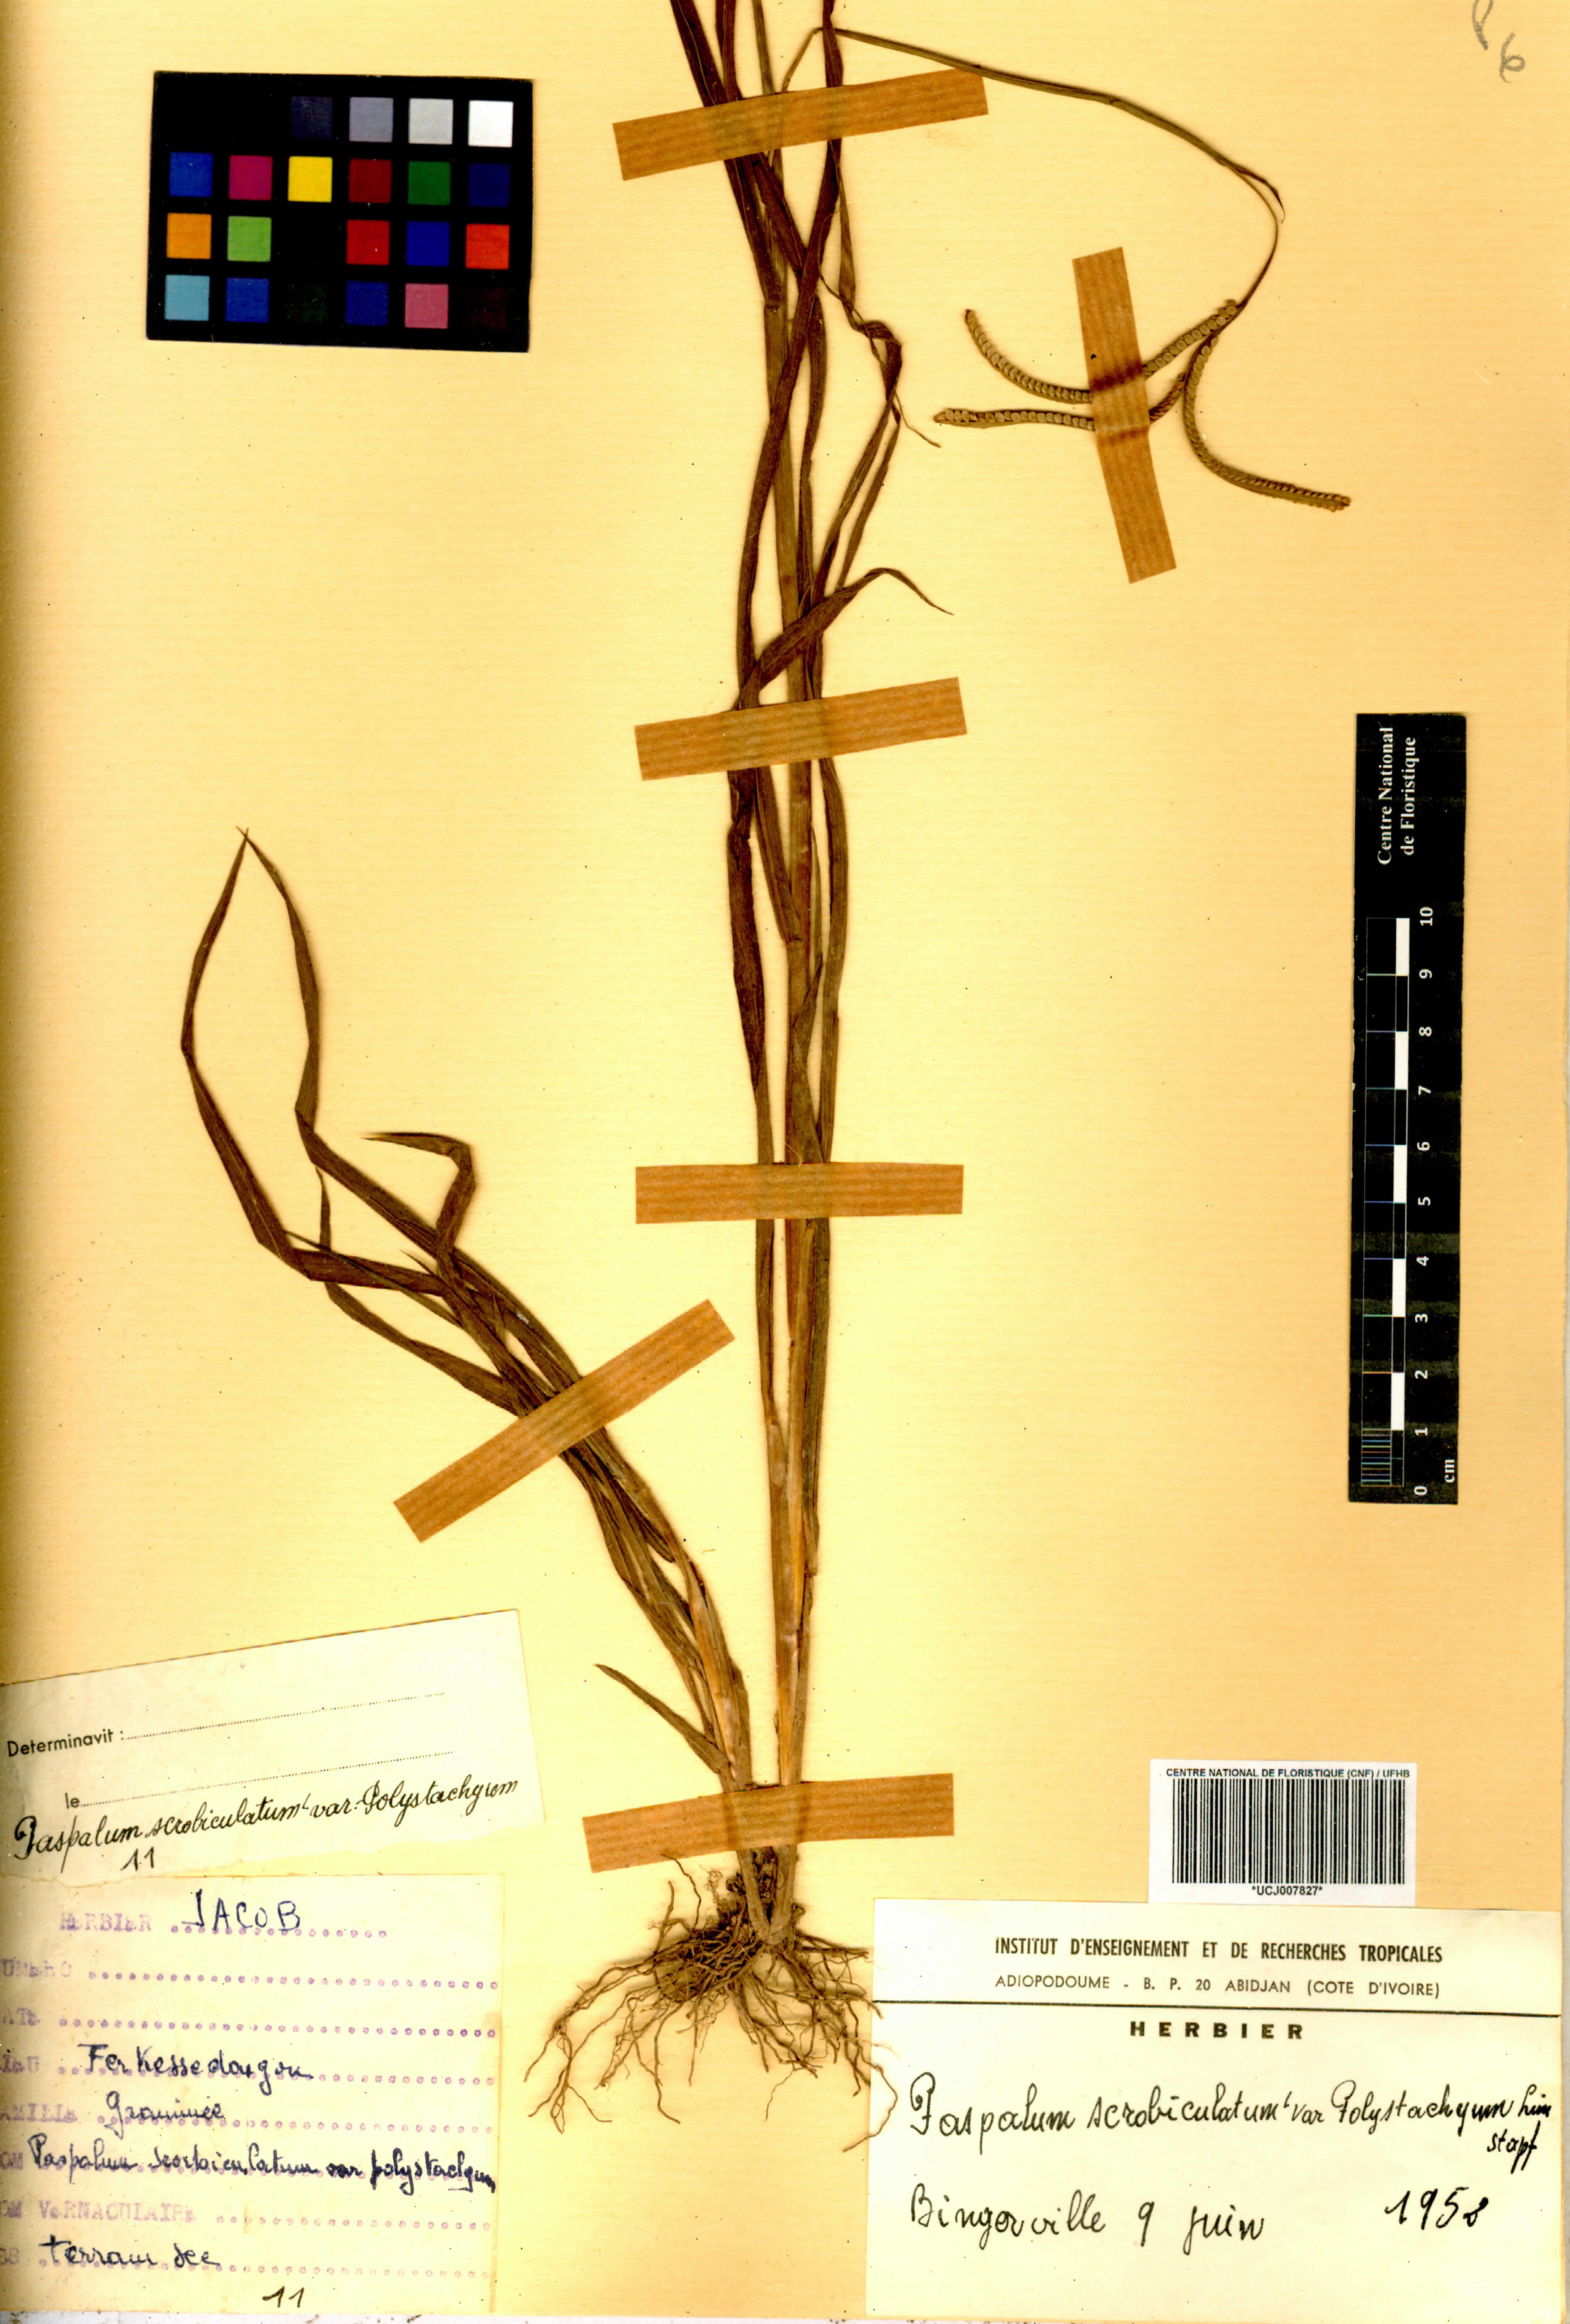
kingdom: Plantae
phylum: Tracheophyta
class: Liliopsida
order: Poales
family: Poaceae
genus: Paspalum
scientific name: Paspalum scrobiculatum
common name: Kodo millet
